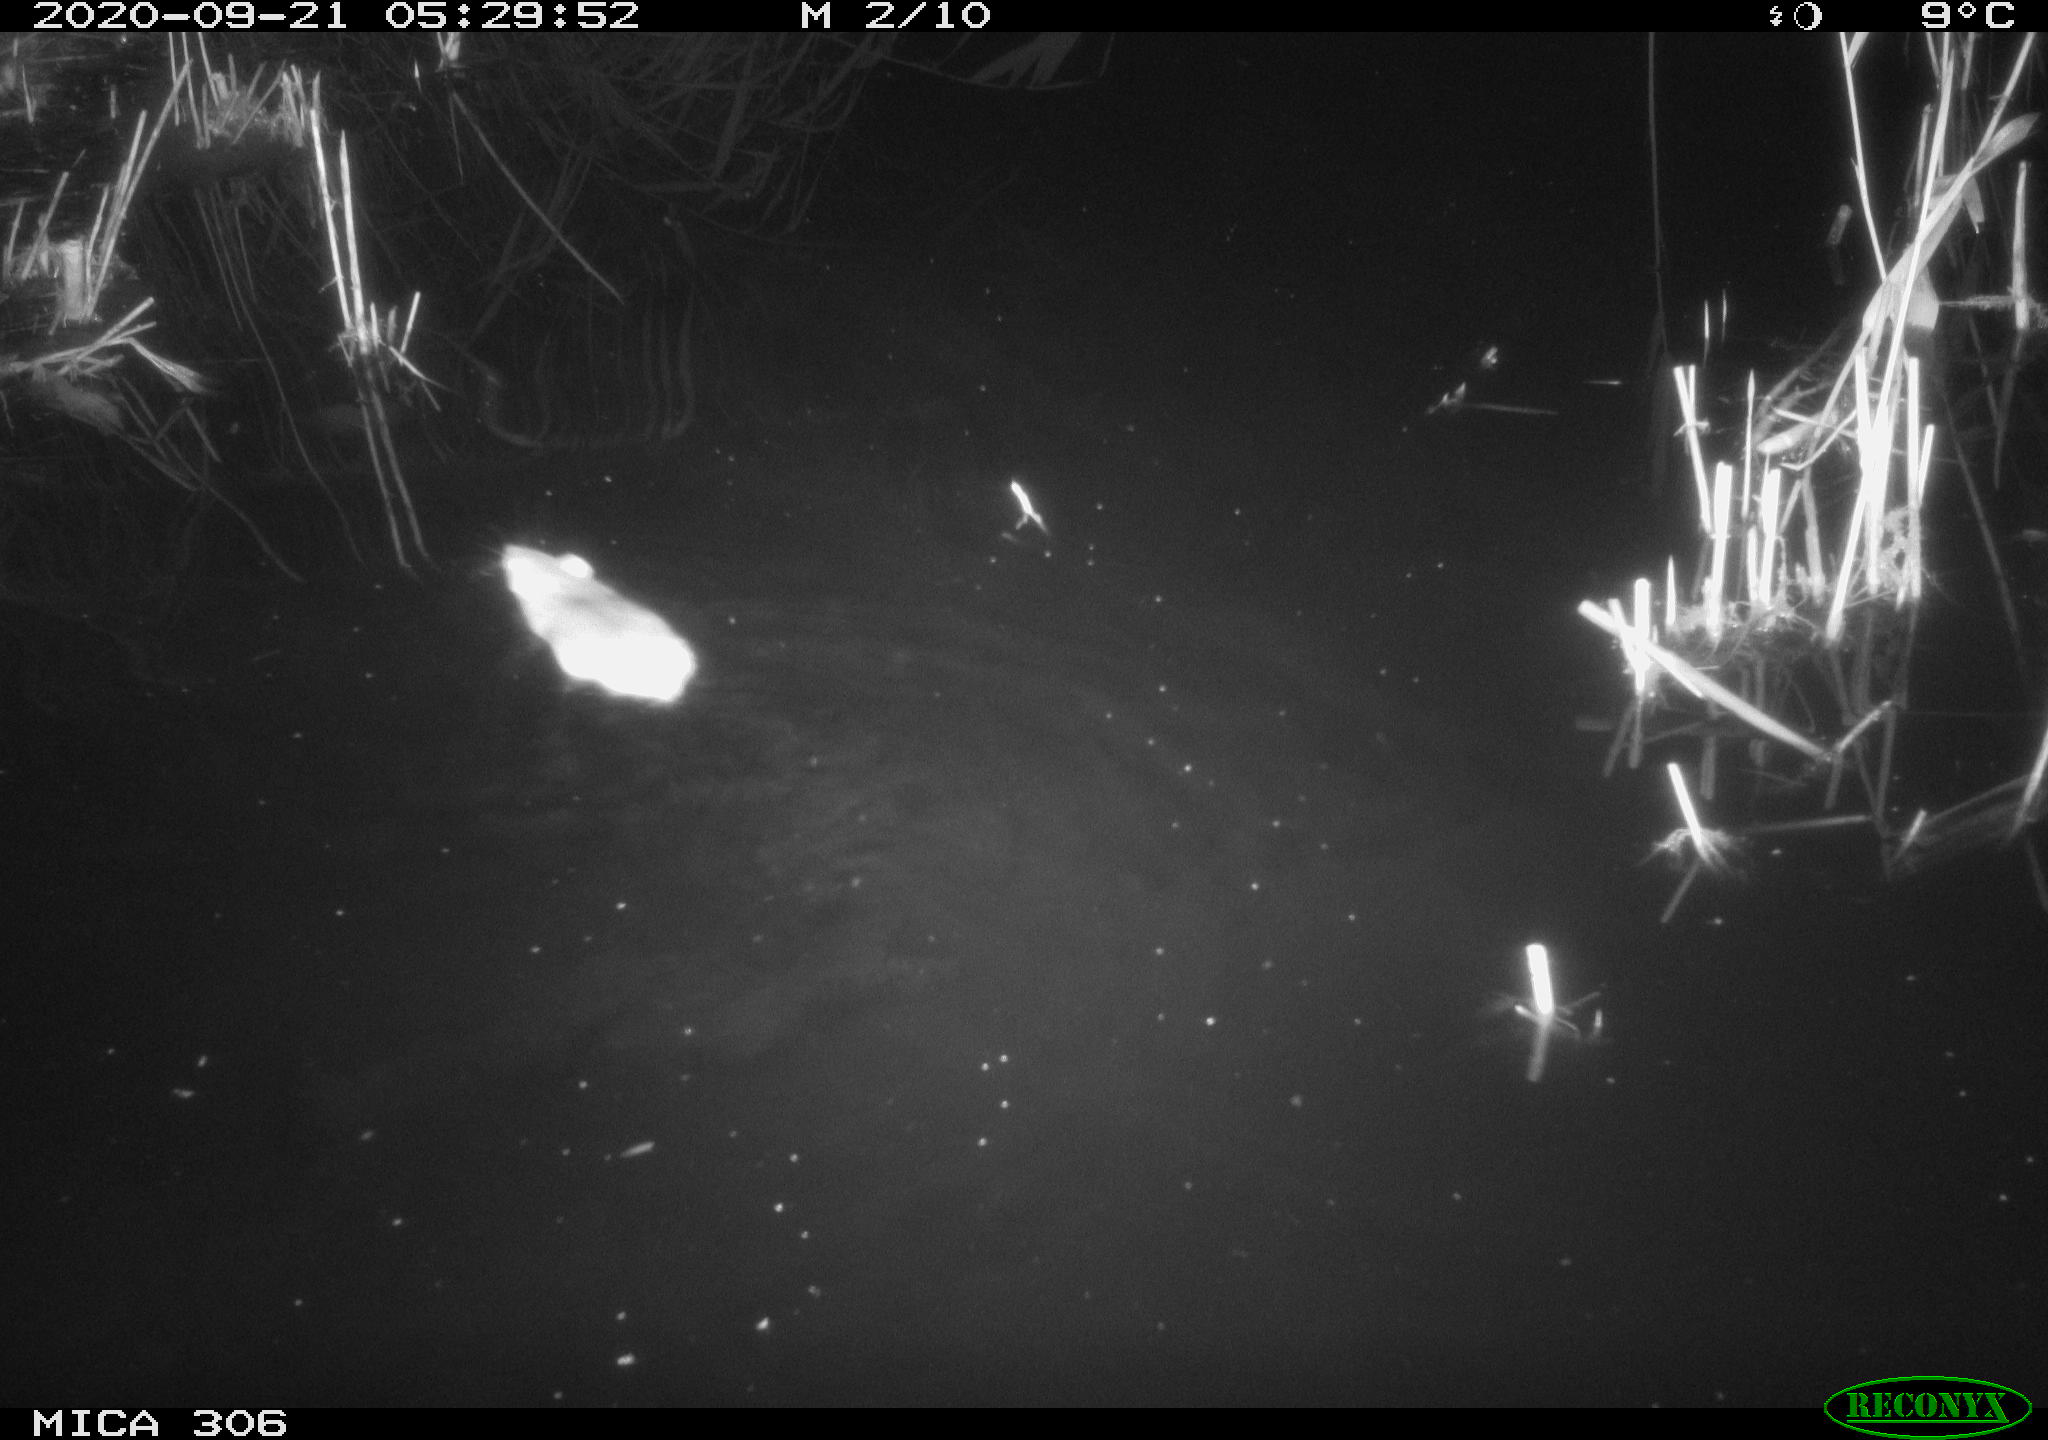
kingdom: Animalia
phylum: Chordata
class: Mammalia
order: Rodentia
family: Muridae
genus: Rattus
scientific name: Rattus norvegicus
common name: Brown rat
